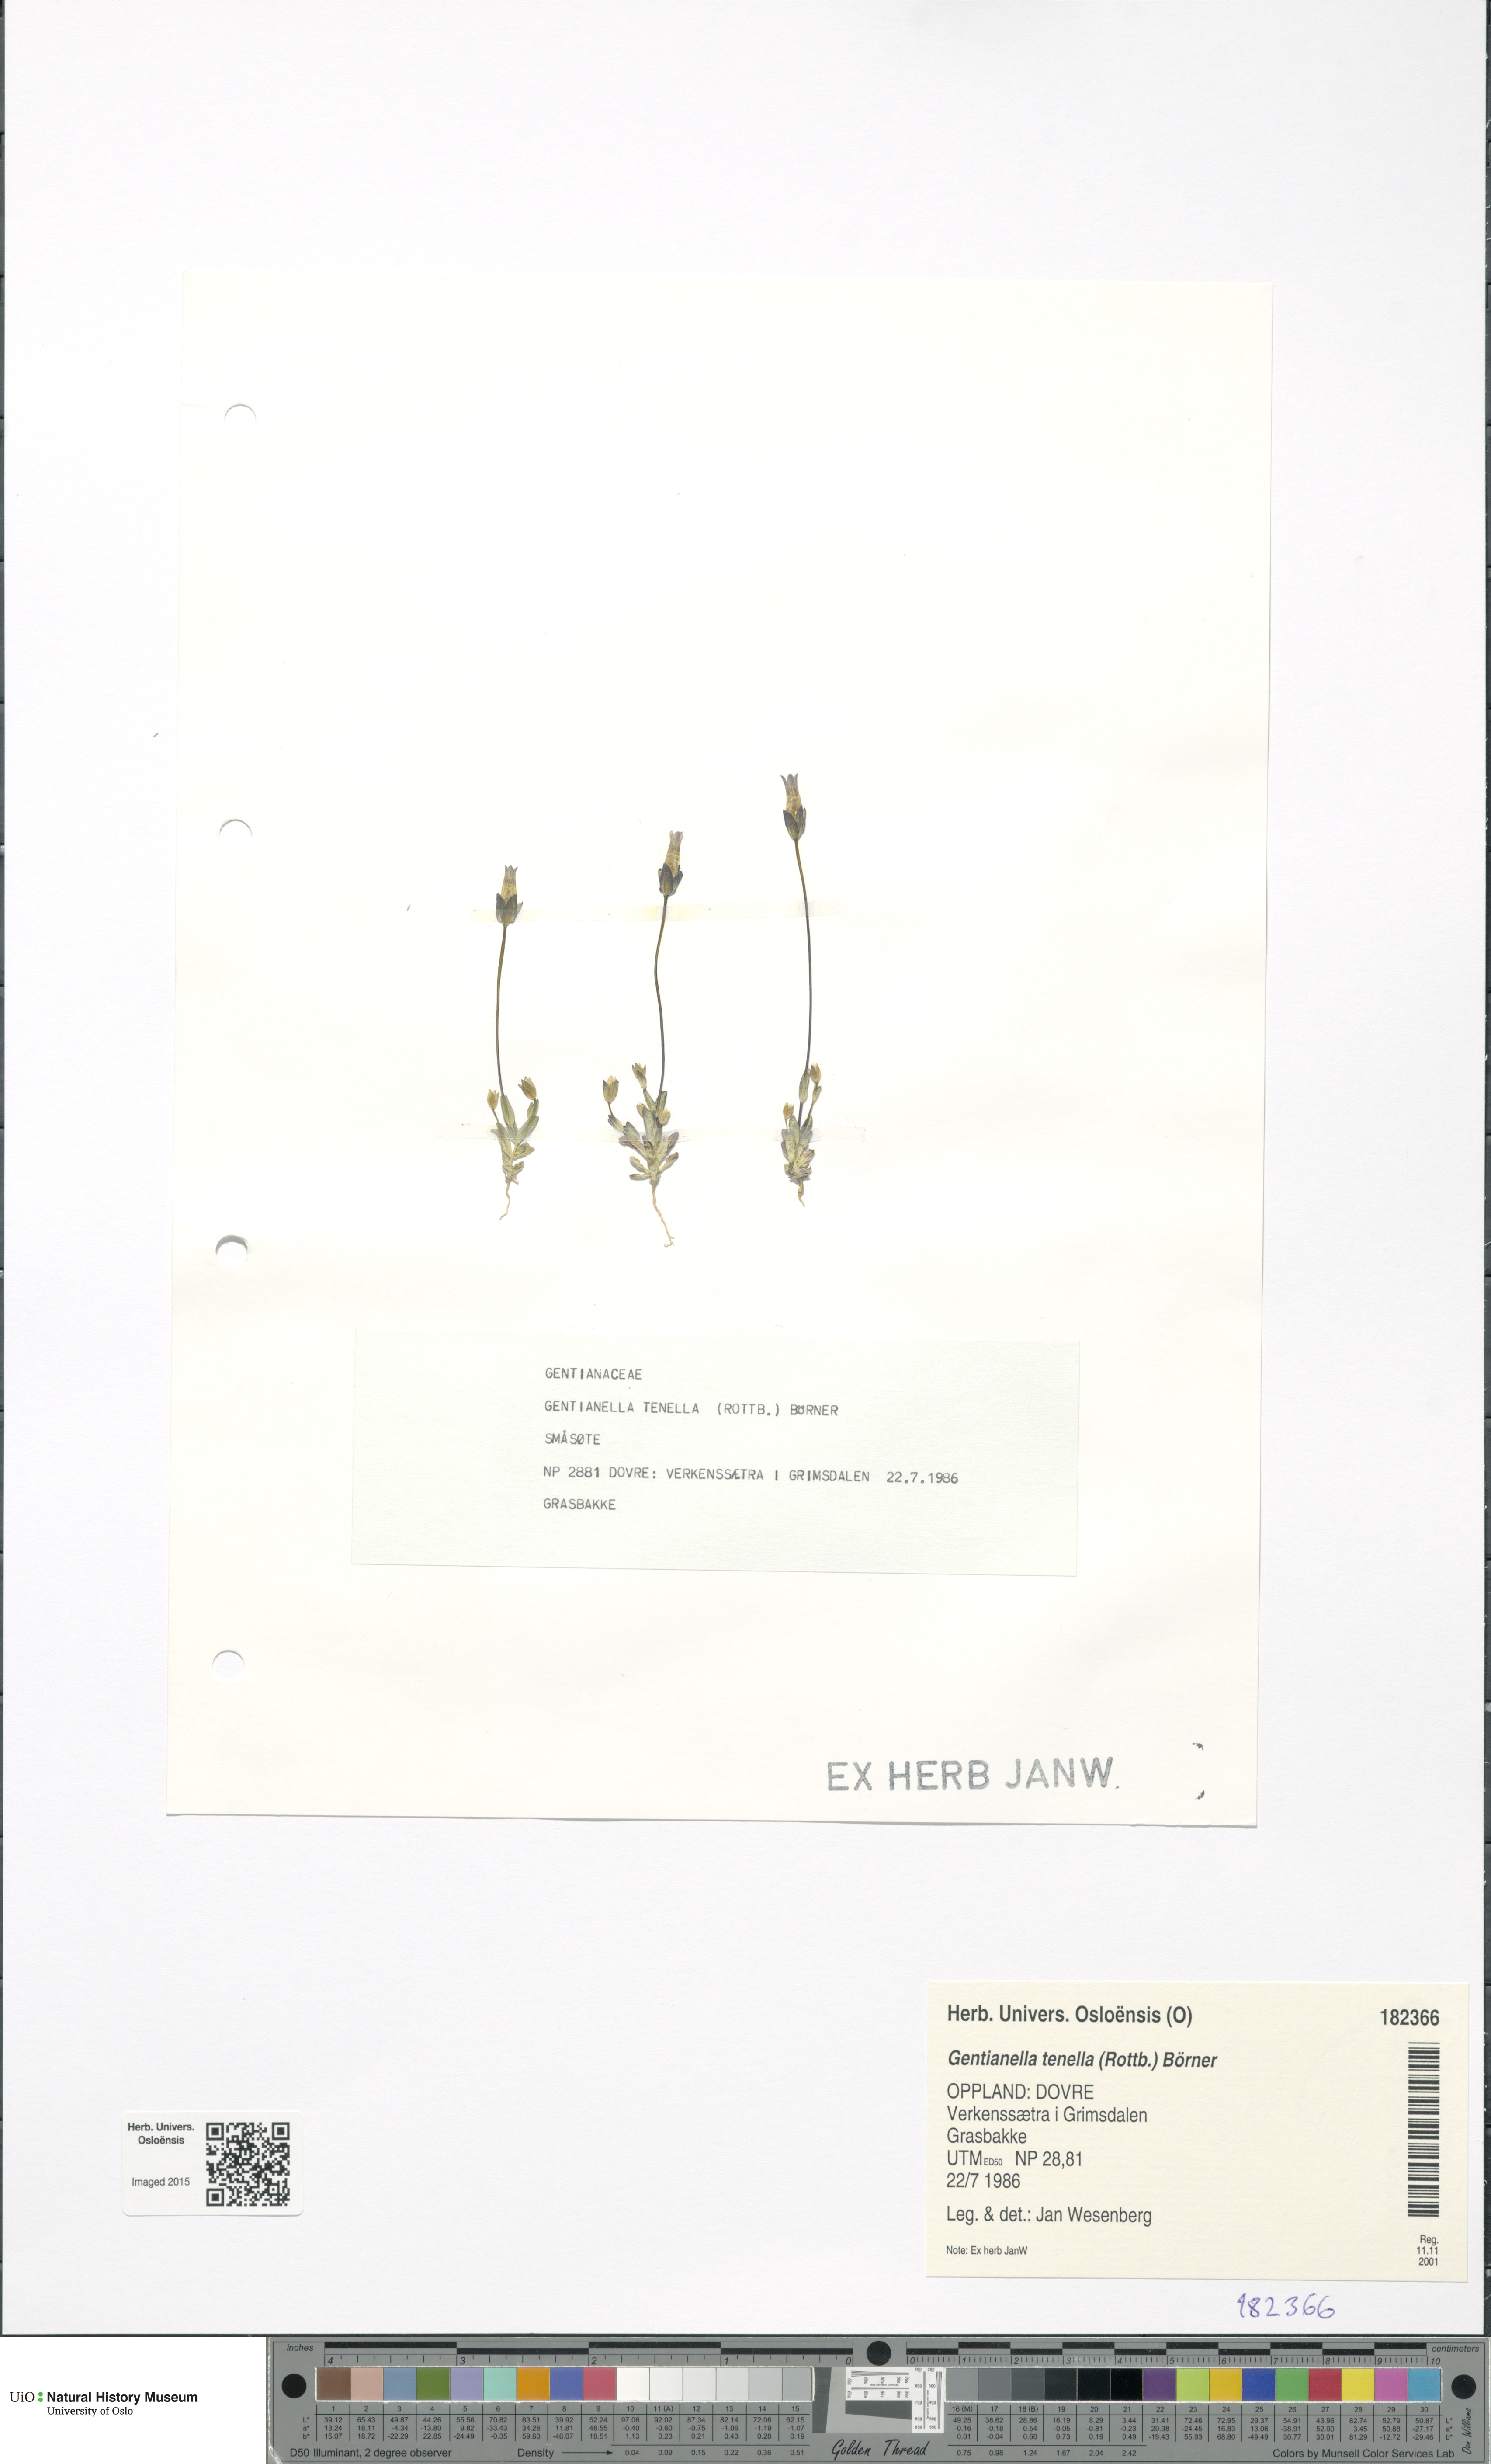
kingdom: Plantae
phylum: Tracheophyta
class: Magnoliopsida
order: Gentianales
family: Gentianaceae
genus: Comastoma
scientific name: Comastoma tenellum
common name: Dane's dwarf gentian
